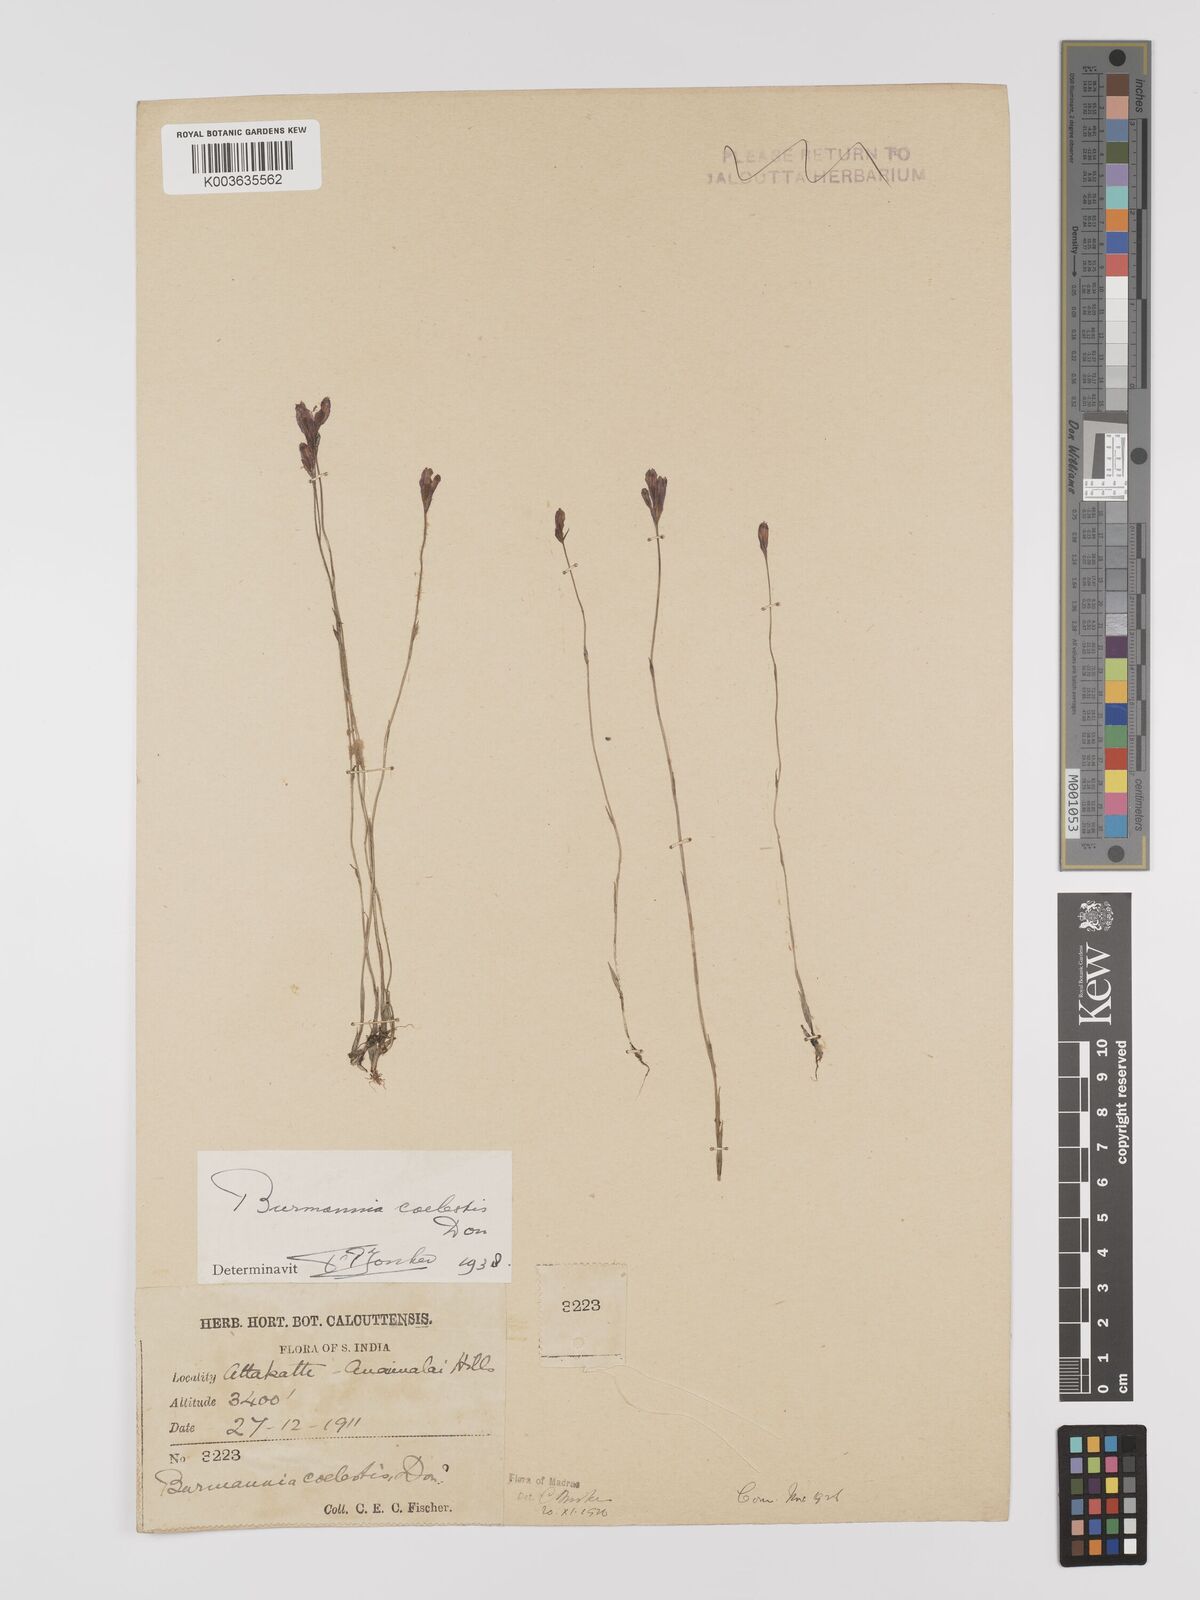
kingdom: Plantae
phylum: Tracheophyta
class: Liliopsida
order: Dioscoreales
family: Burmanniaceae
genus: Burmannia
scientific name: Burmannia coelestis
